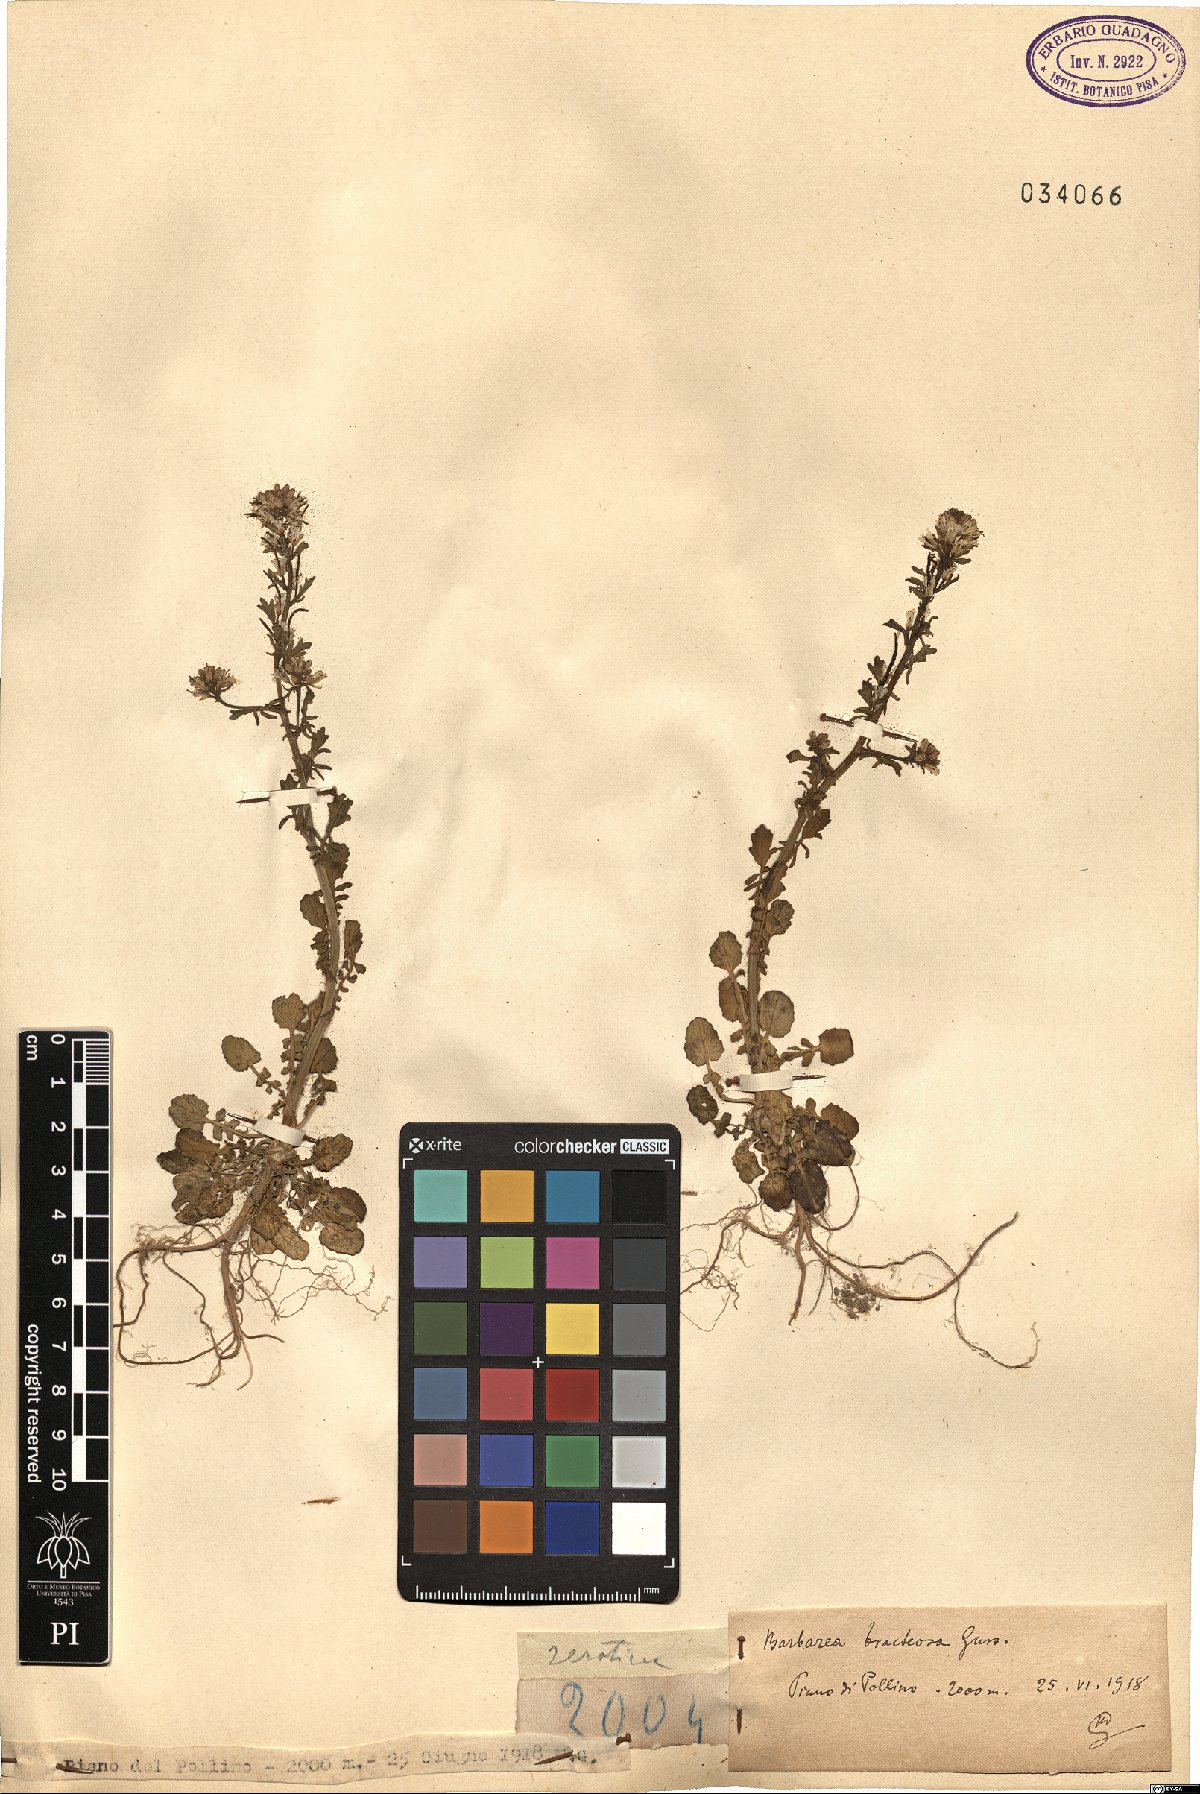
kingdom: Plantae
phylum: Tracheophyta
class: Magnoliopsida
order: Brassicales
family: Brassicaceae
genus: Barbarea
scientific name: Barbarea bracteosa
